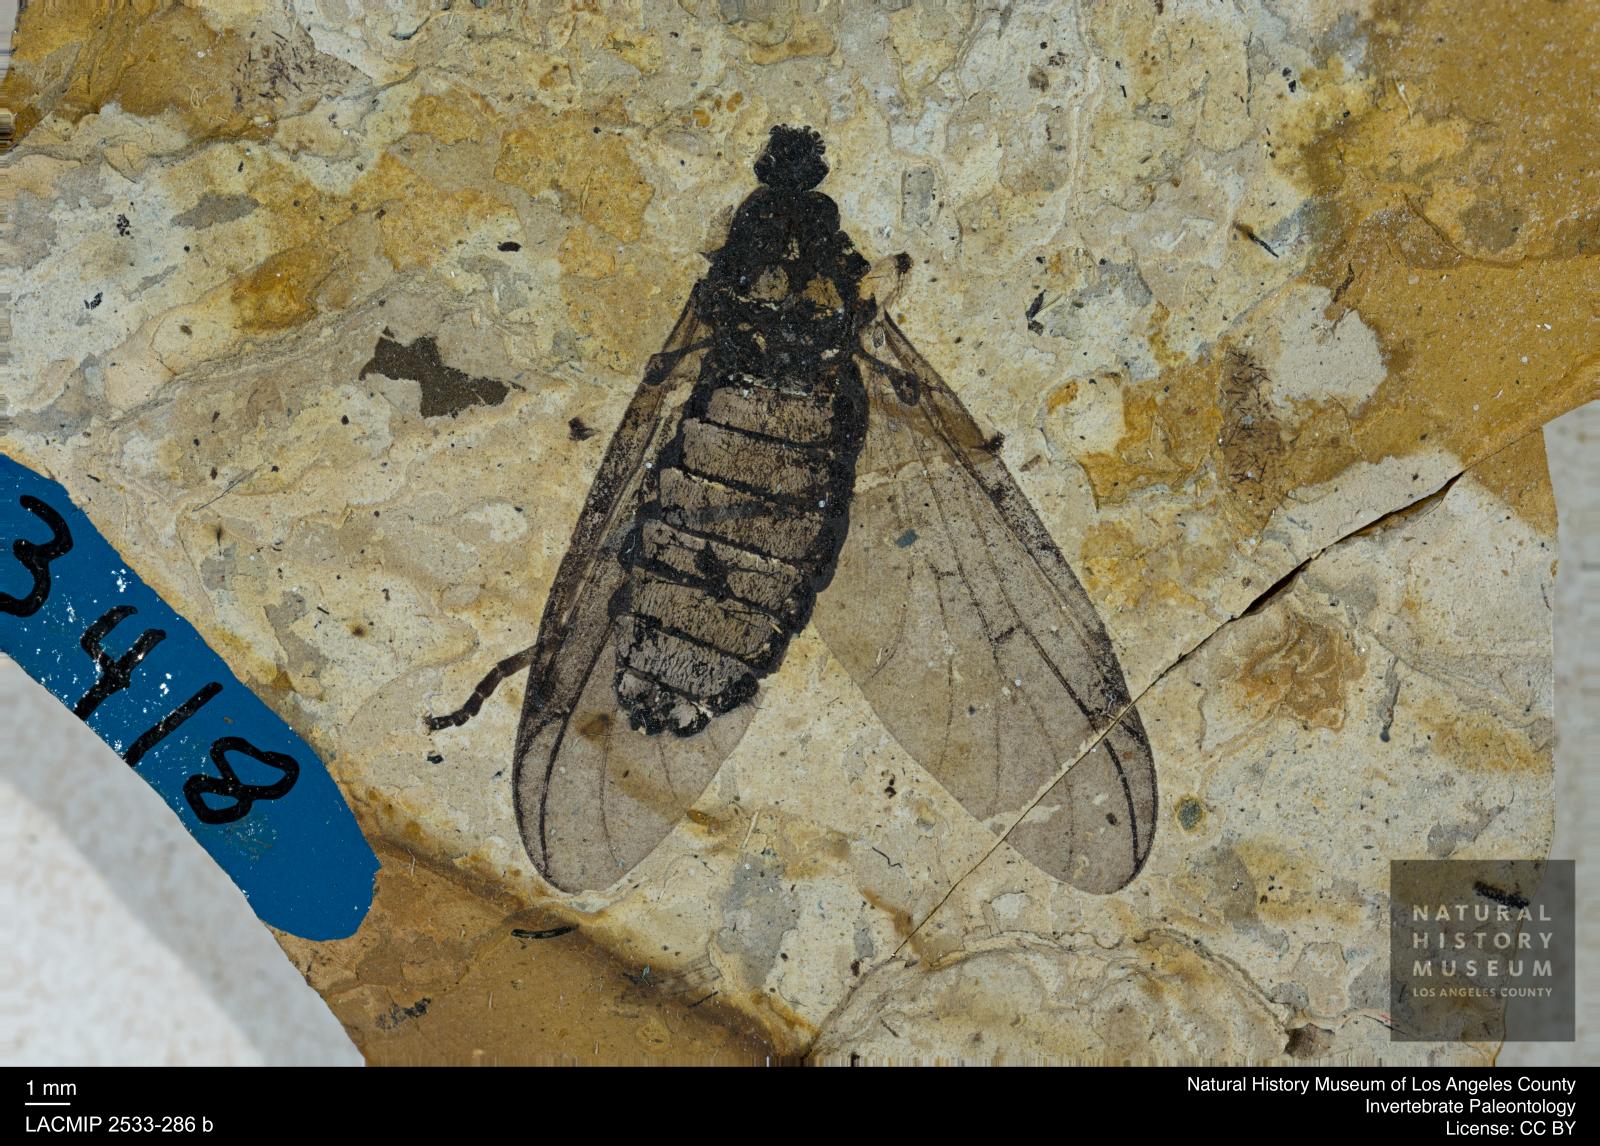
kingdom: Animalia
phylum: Arthropoda
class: Insecta
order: Diptera
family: Bibionidae
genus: Plecia
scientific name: Plecia rhenana
